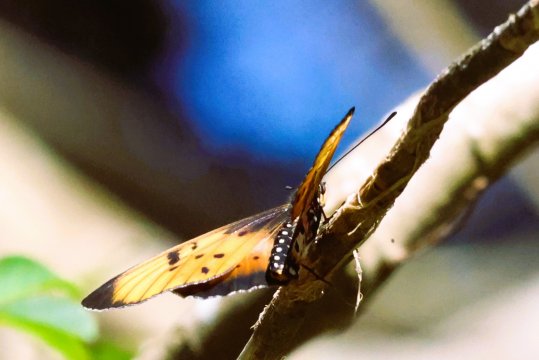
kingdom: Animalia
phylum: Arthropoda
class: Insecta
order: Lepidoptera
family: Nymphalidae
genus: Acraea
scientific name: Acraea natalica
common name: Natal Acraea
